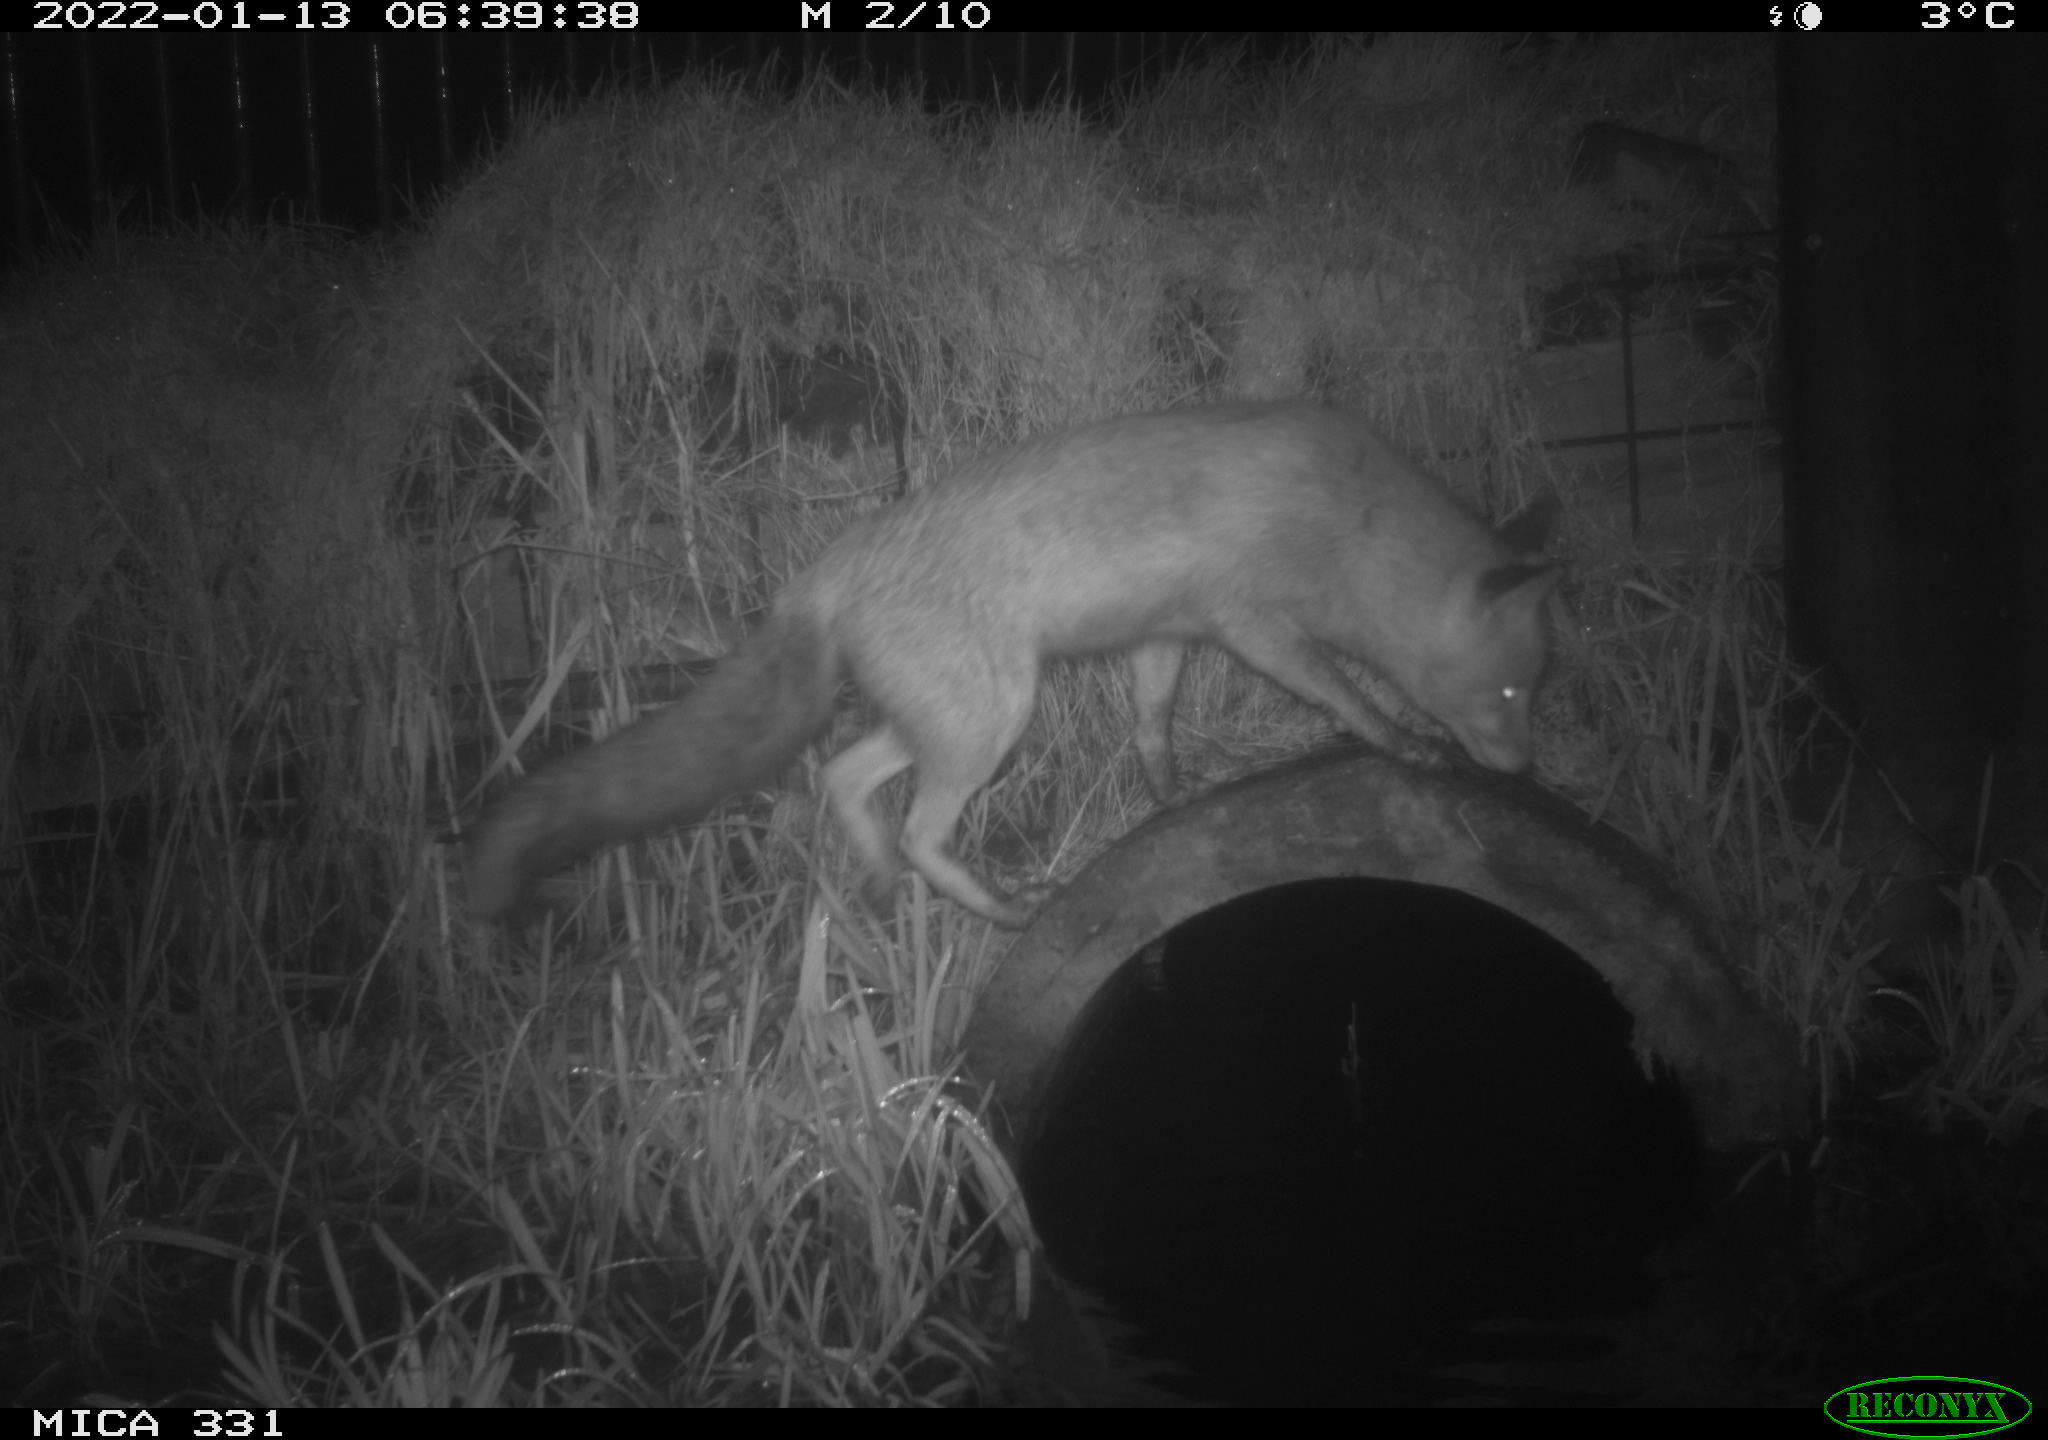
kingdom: Animalia
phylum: Chordata
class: Mammalia
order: Carnivora
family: Canidae
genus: Vulpes
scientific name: Vulpes vulpes
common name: Red fox
